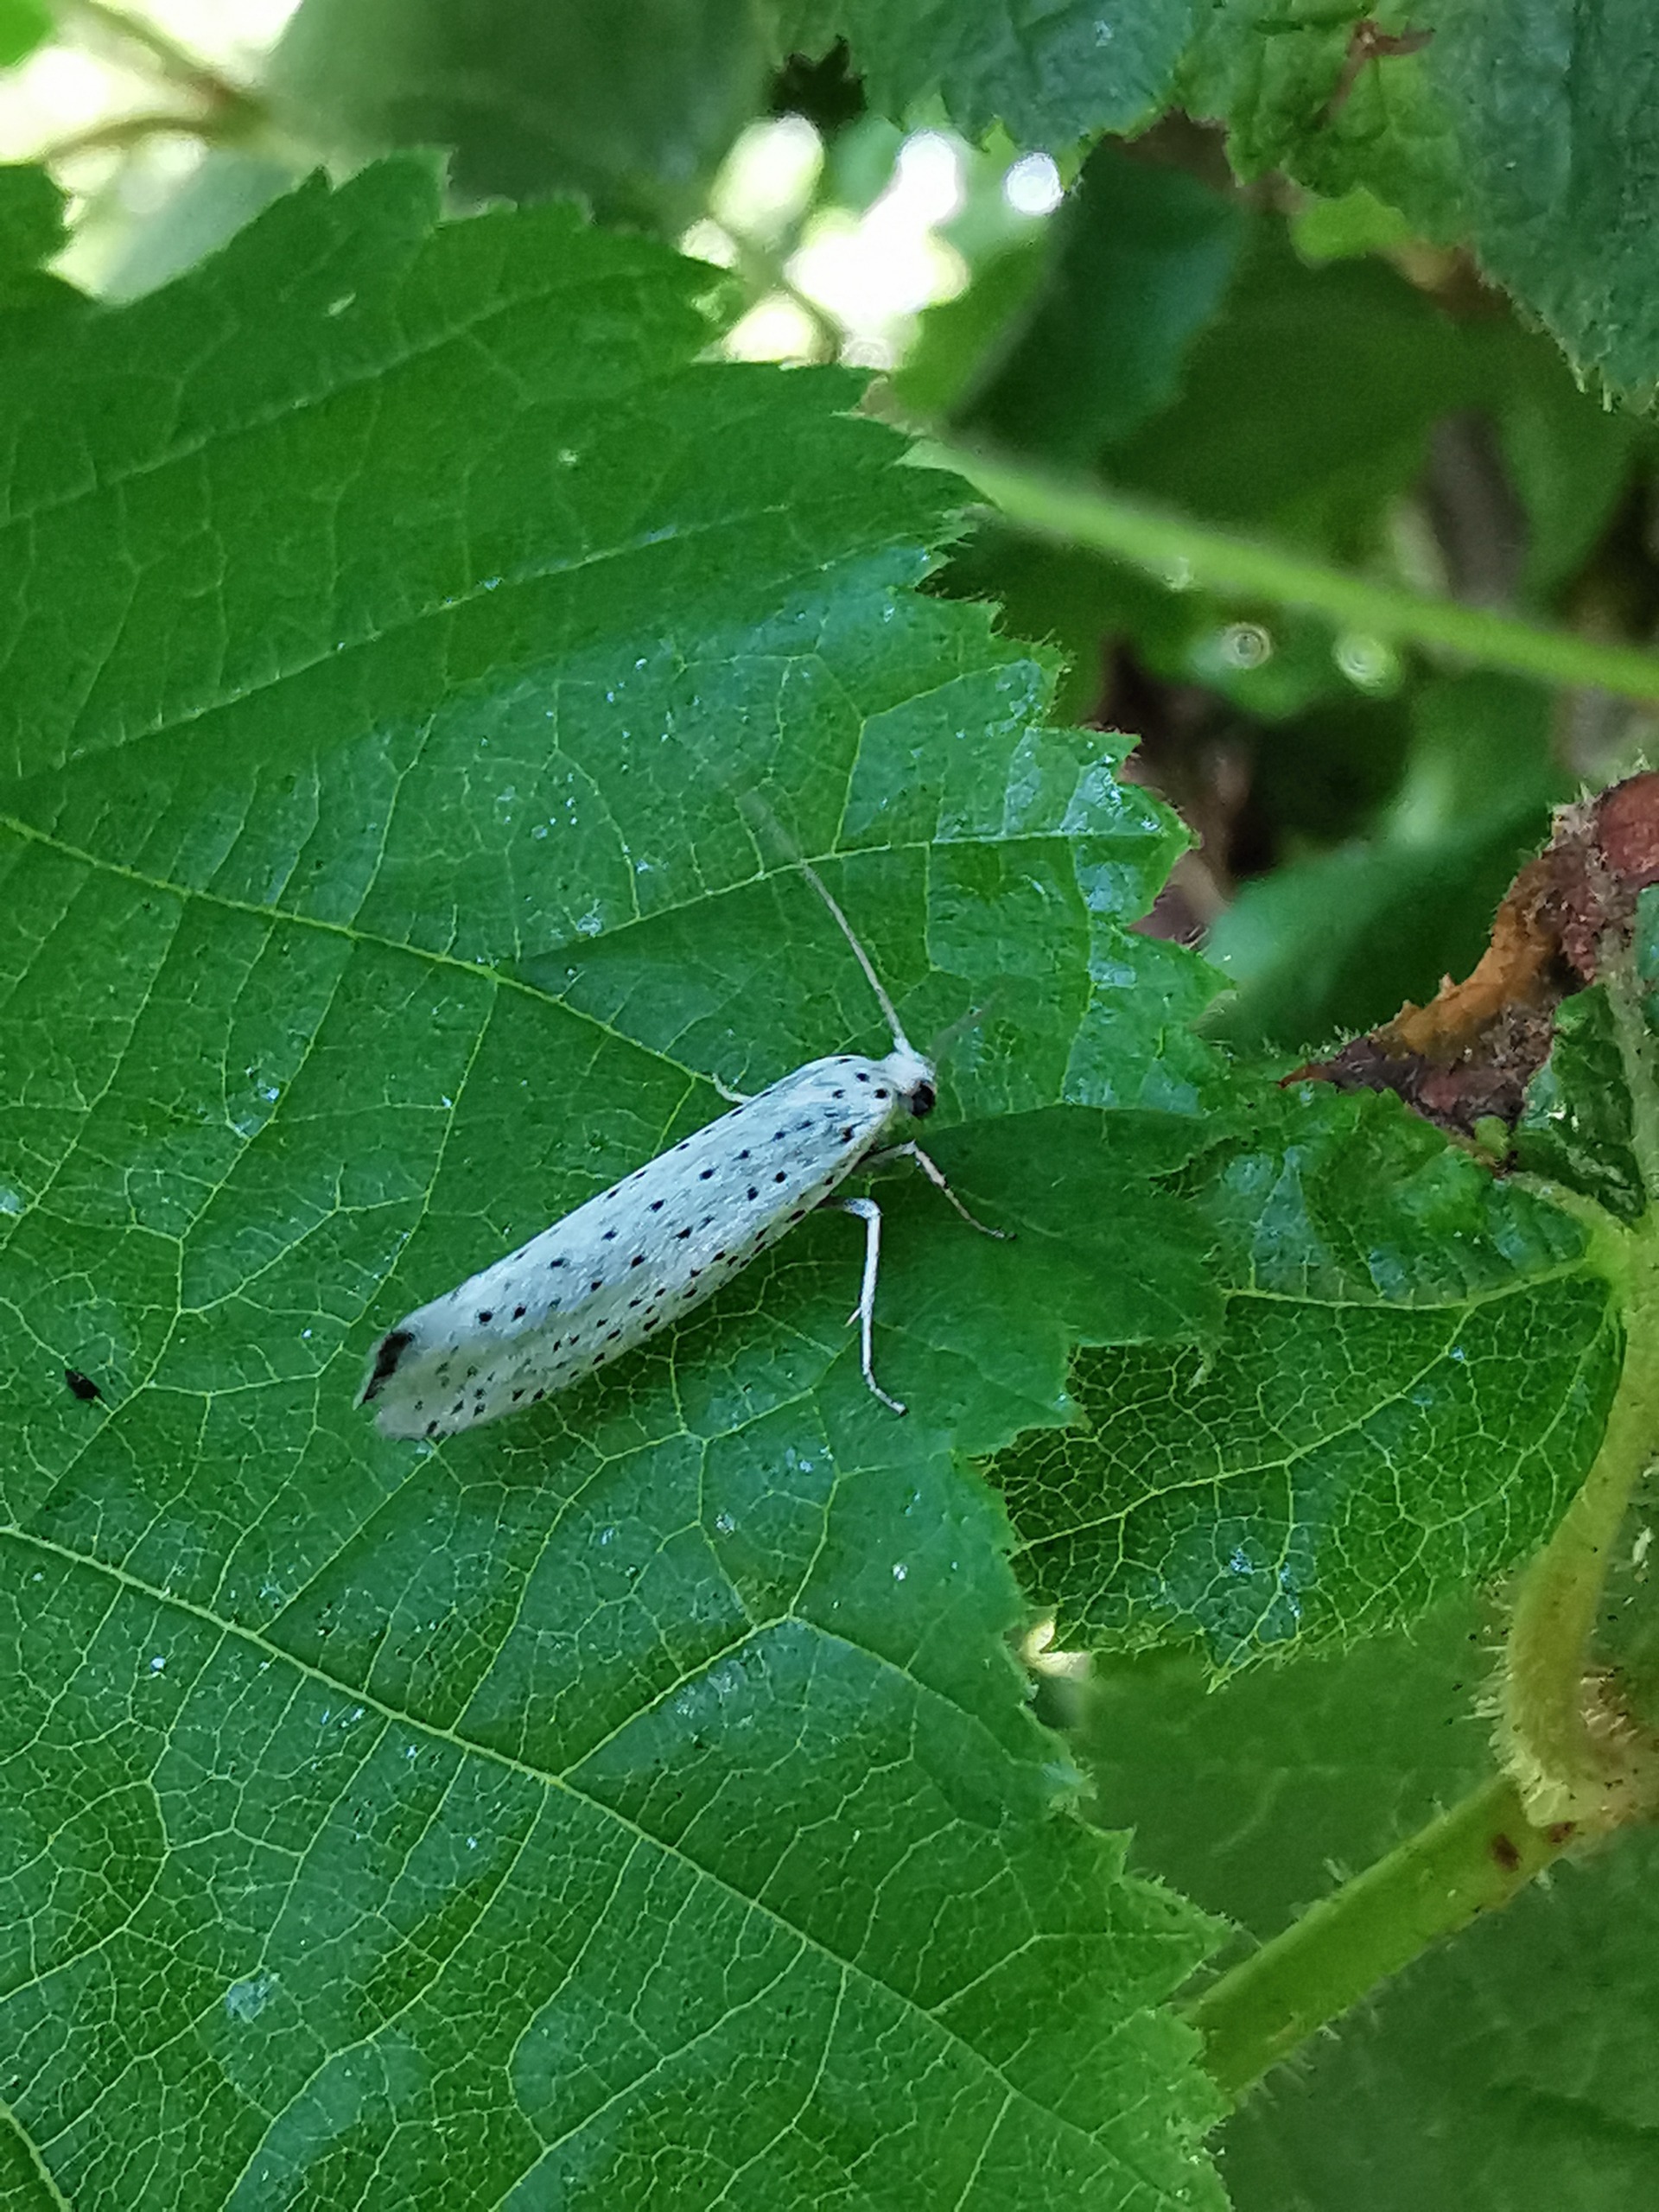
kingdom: Animalia
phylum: Arthropoda
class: Insecta
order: Lepidoptera
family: Yponomeutidae
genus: Yponomeuta
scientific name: Yponomeuta evonymella
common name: Hægspindemøl
